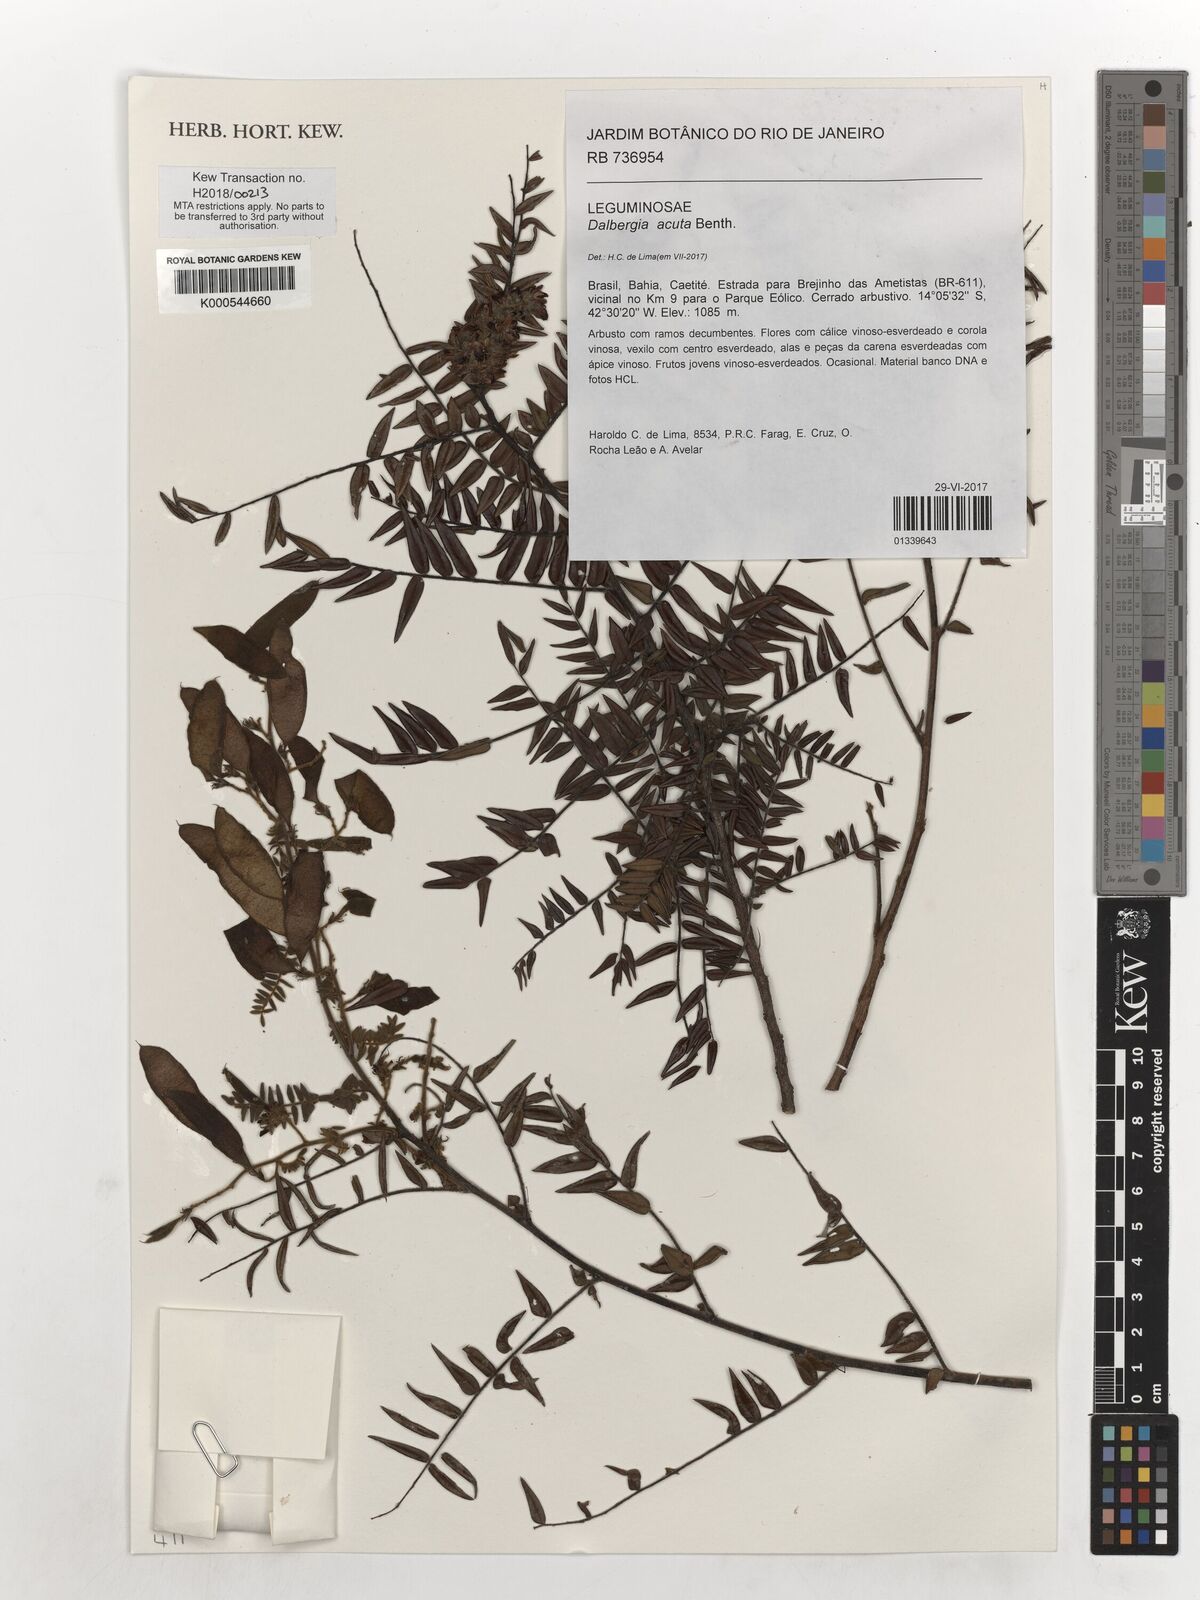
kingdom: Plantae
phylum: Tracheophyta
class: Magnoliopsida
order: Fabales
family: Fabaceae
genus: Dalbergia
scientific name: Dalbergia acuta
